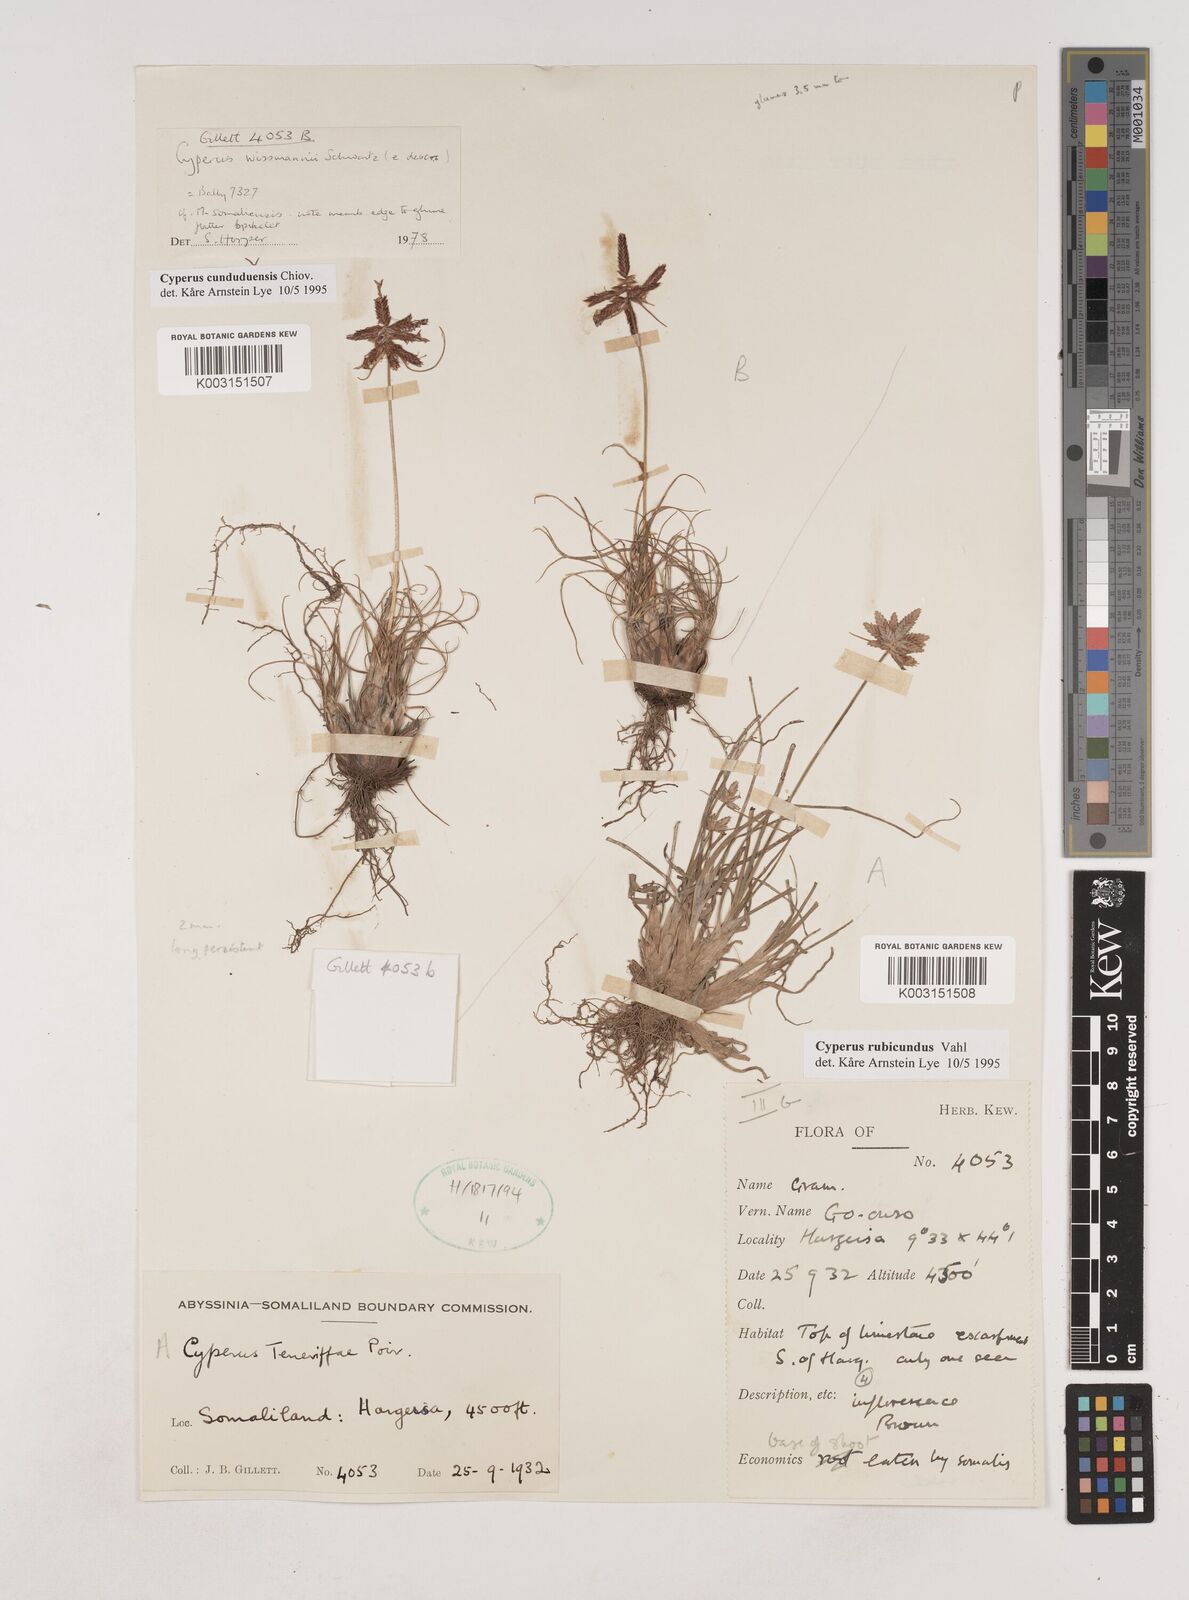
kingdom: Plantae
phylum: Tracheophyta
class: Liliopsida
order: Poales
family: Cyperaceae
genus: Cyperus
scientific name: Cyperus
